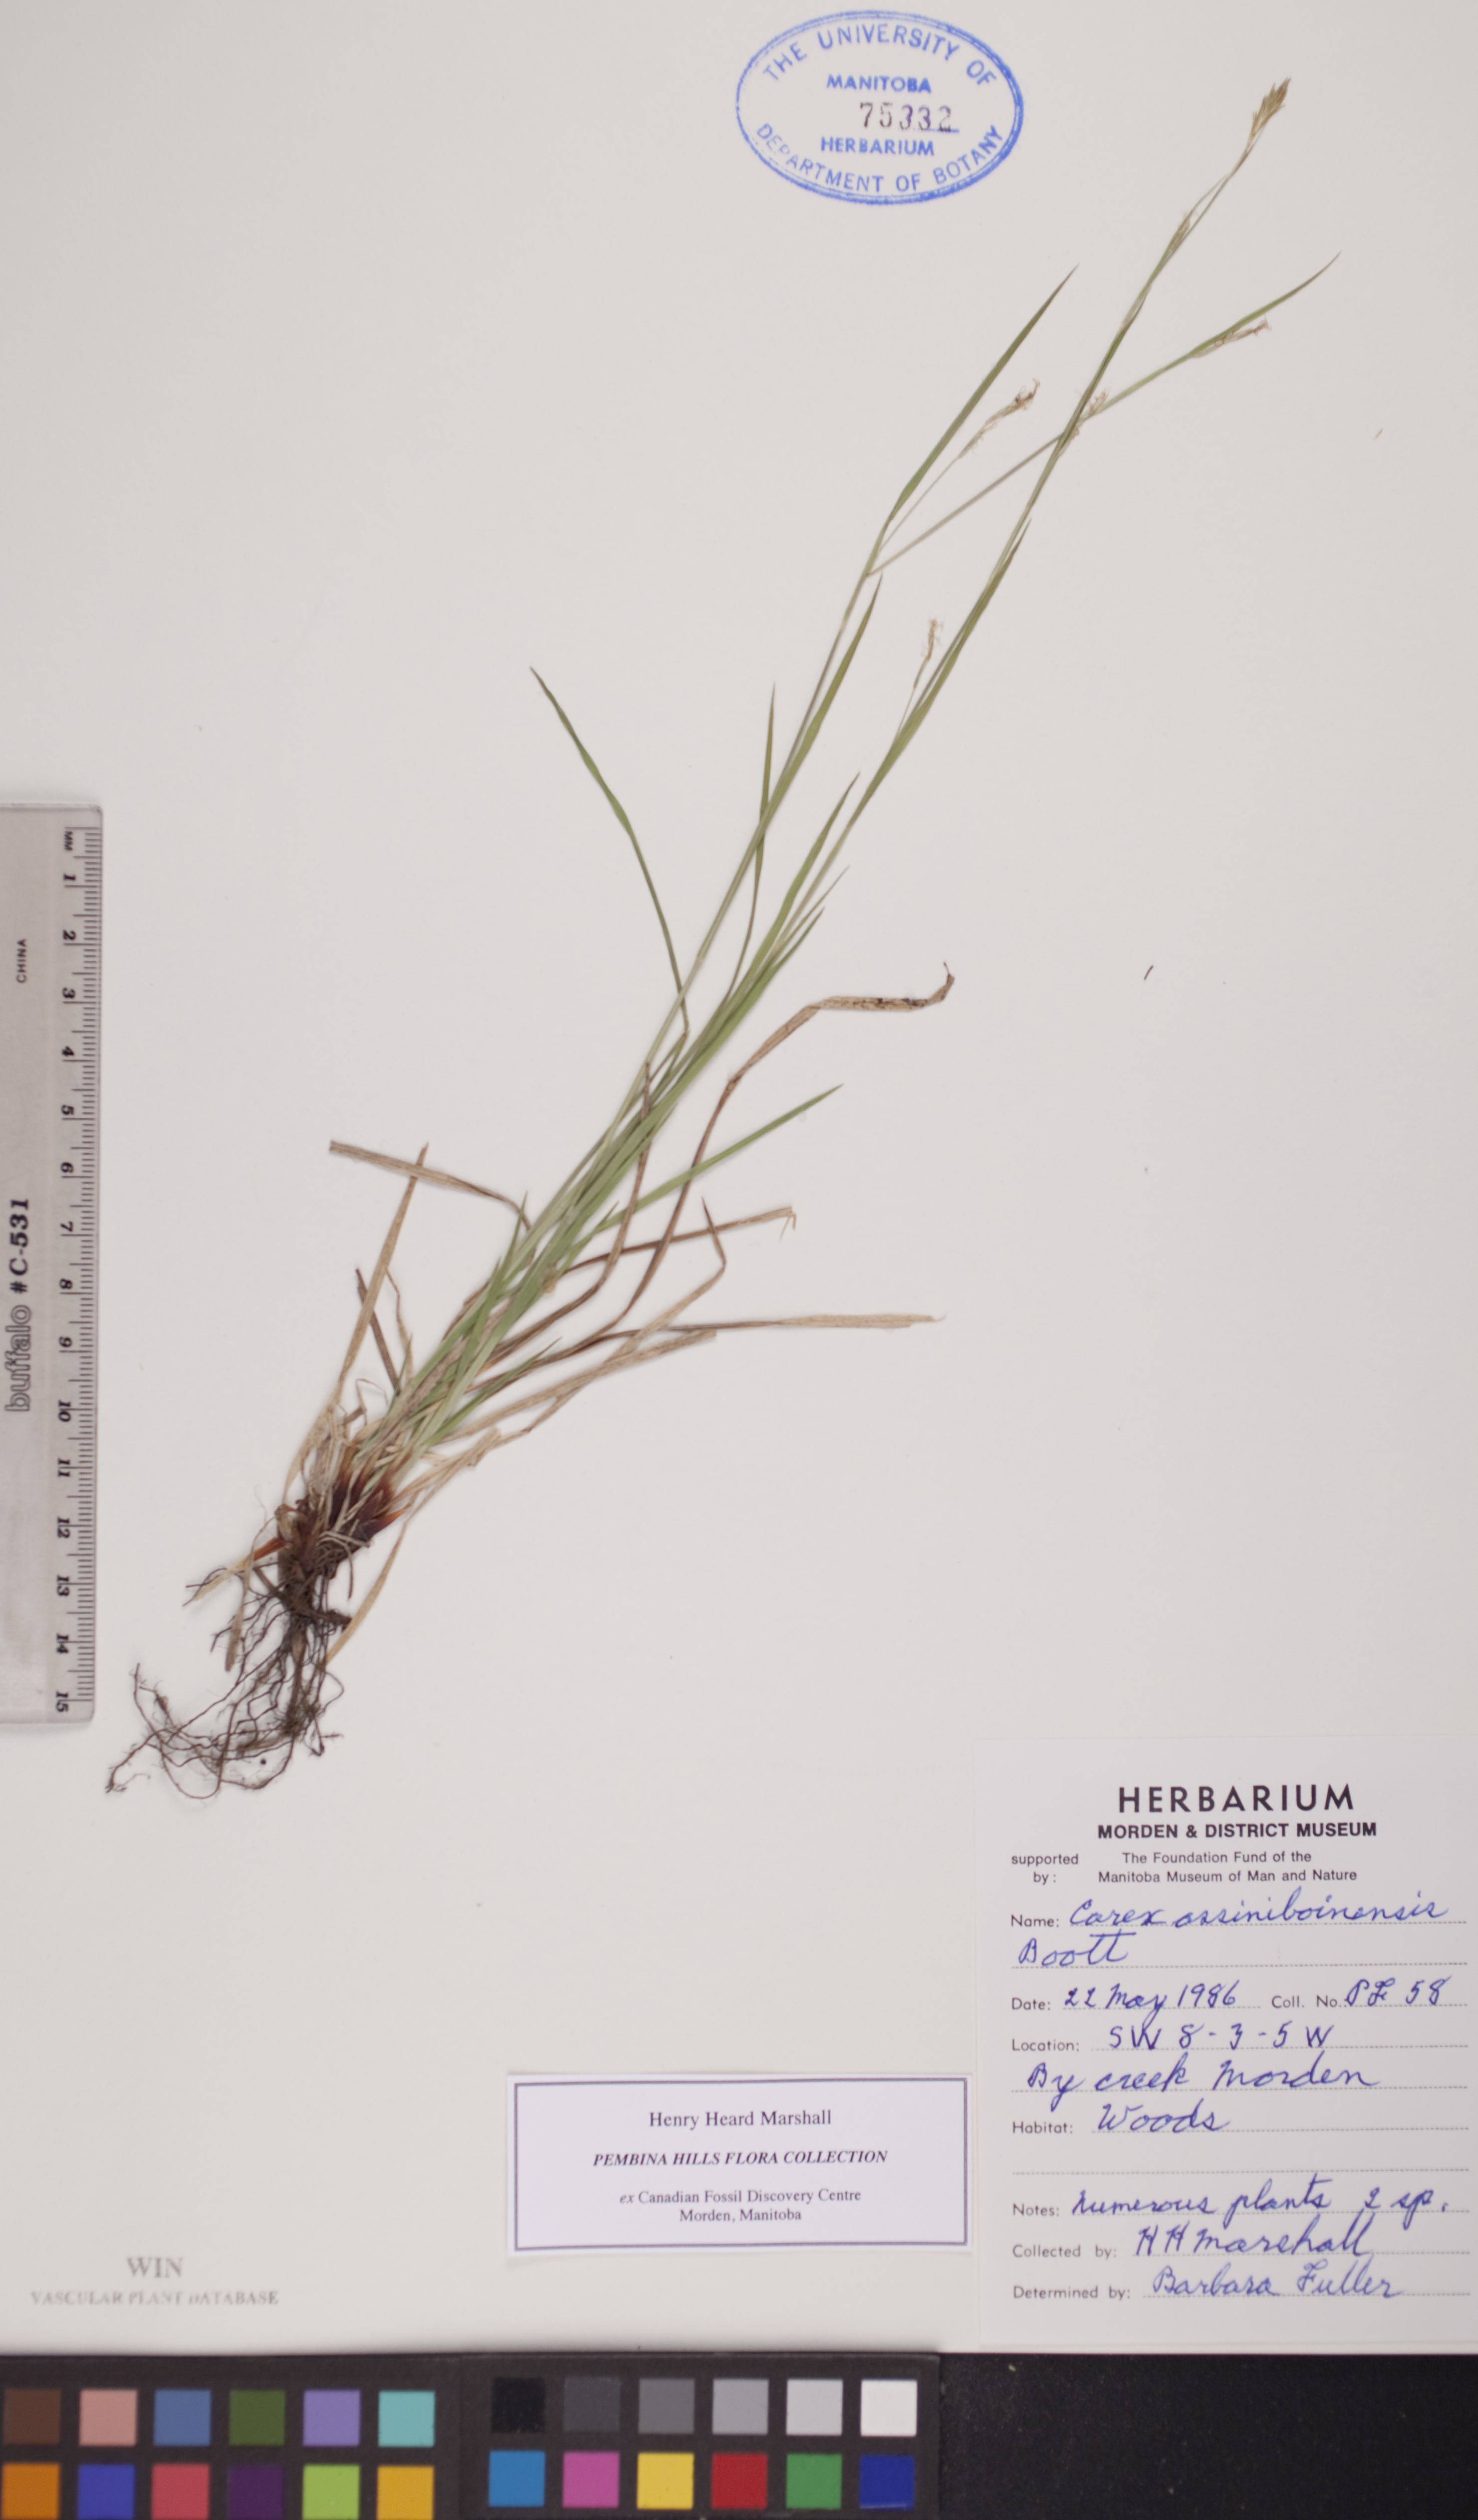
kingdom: Plantae
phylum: Tracheophyta
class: Liliopsida
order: Poales
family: Cyperaceae
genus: Carex
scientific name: Carex assiniboinensis
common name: Assiniboia sedge
